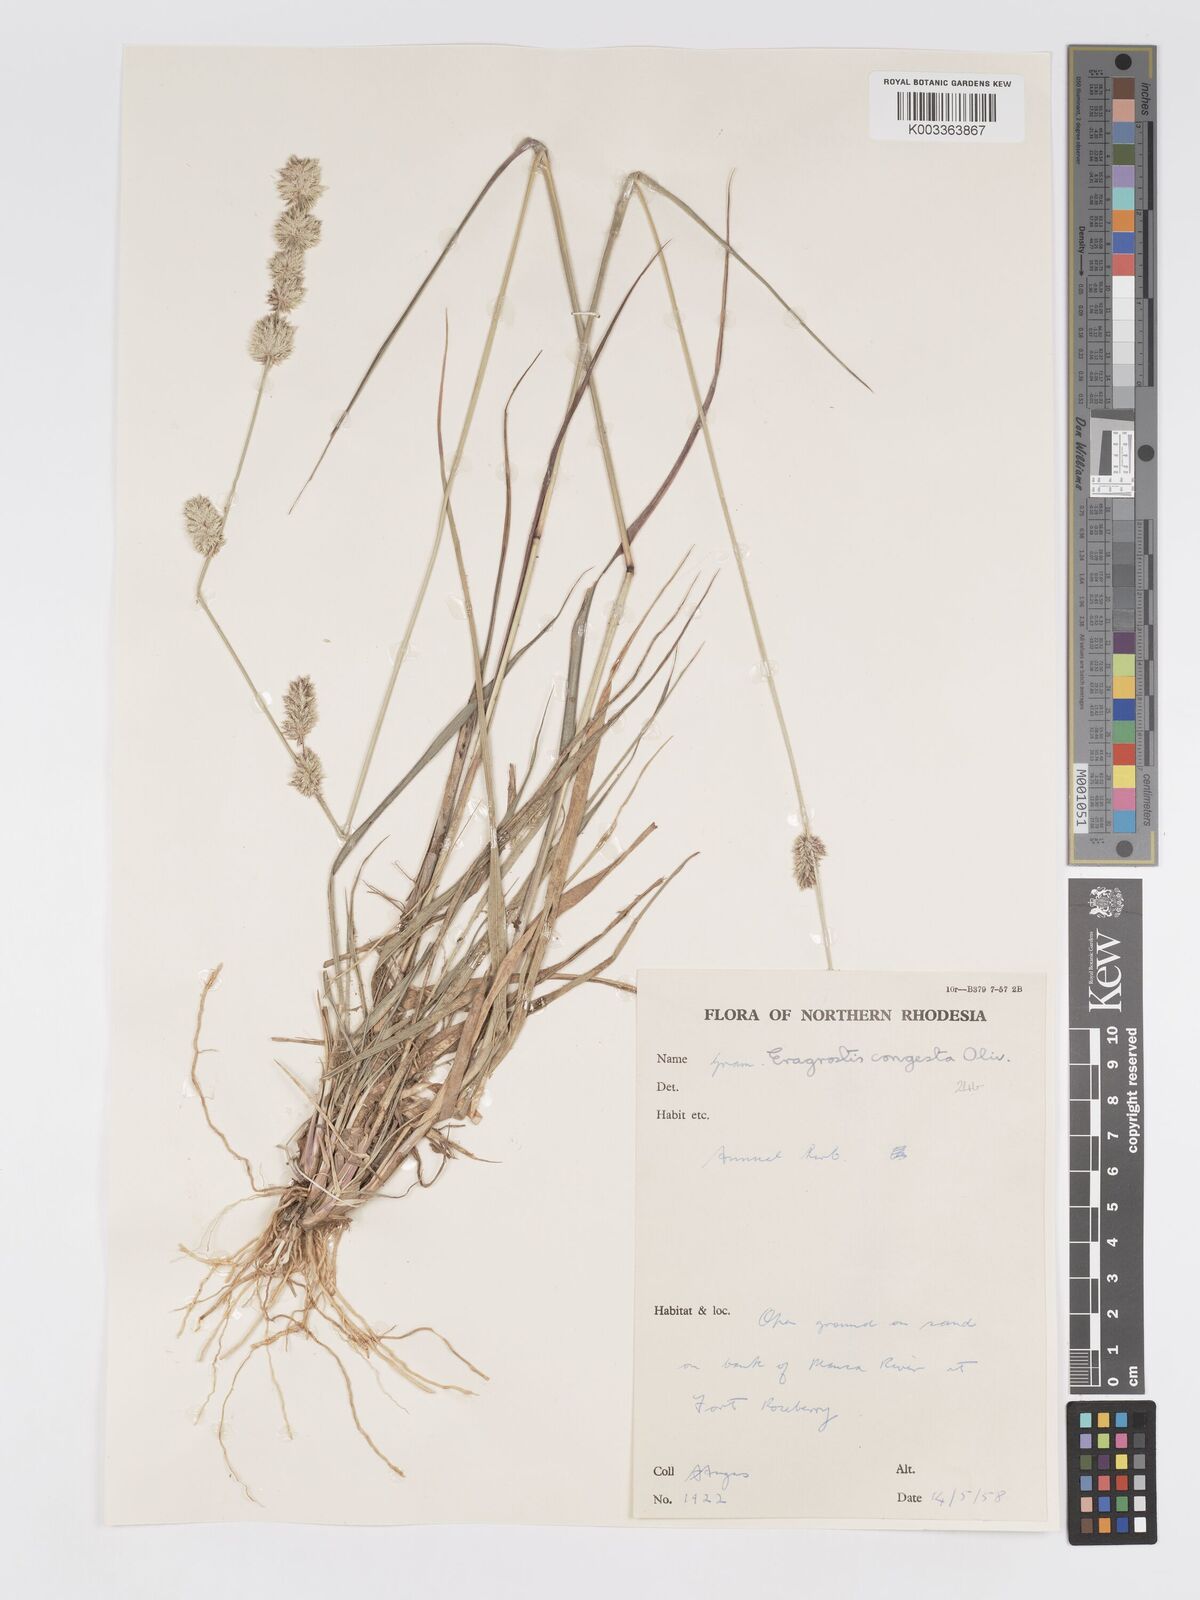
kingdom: Plantae
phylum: Tracheophyta
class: Liliopsida
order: Poales
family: Poaceae
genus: Eragrostis
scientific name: Eragrostis congesta
